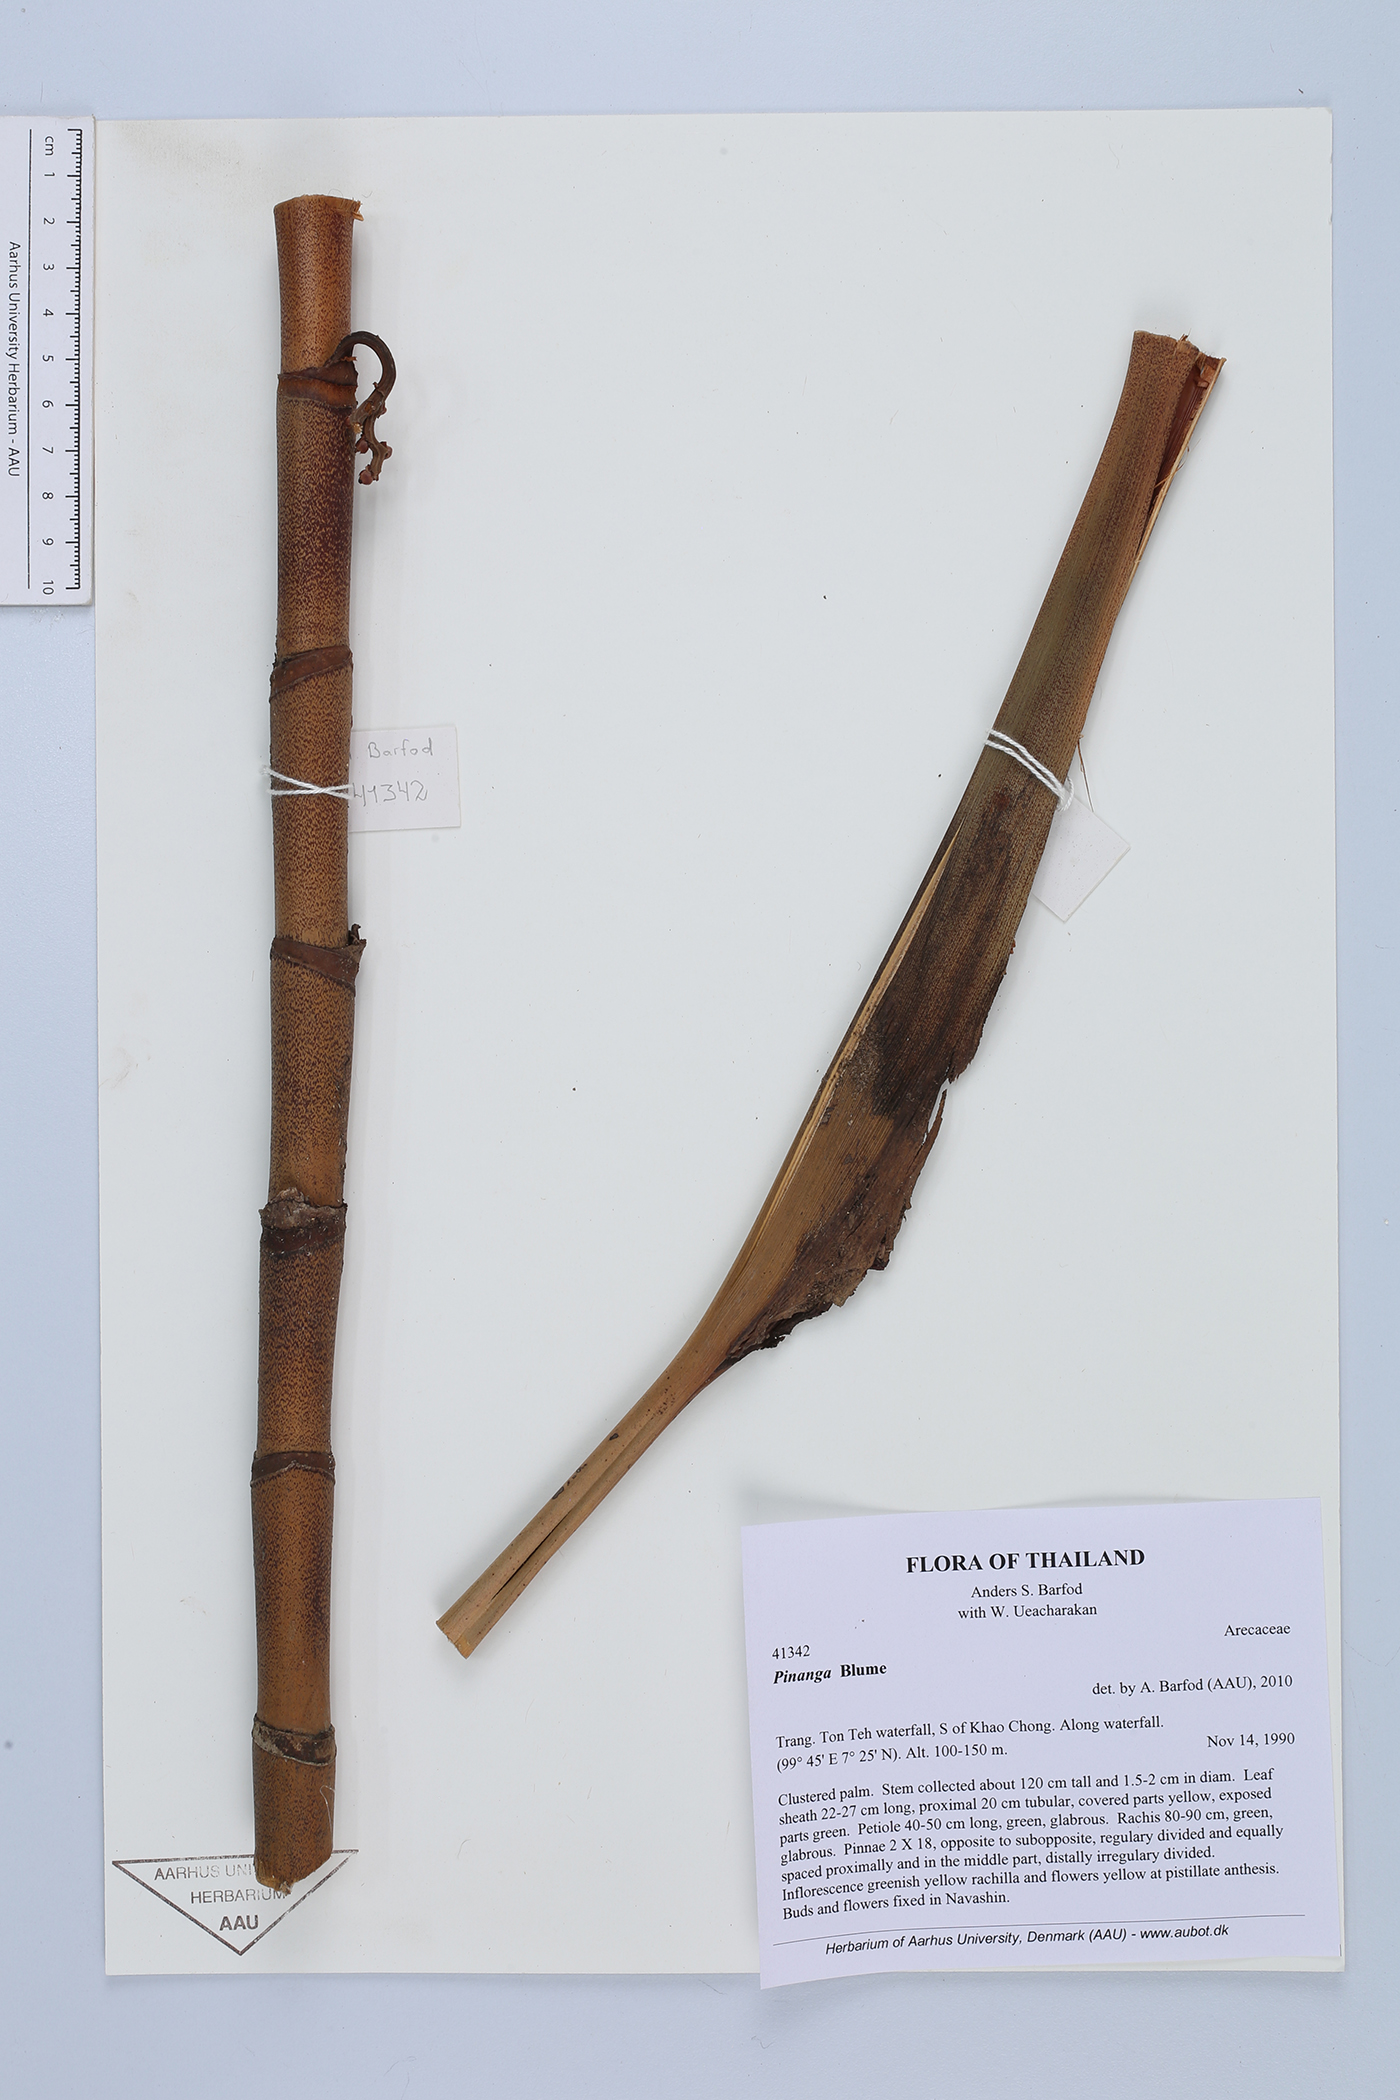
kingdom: Plantae
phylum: Tracheophyta
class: Liliopsida
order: Arecales
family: Arecaceae
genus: Pinanga
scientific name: Pinanga
